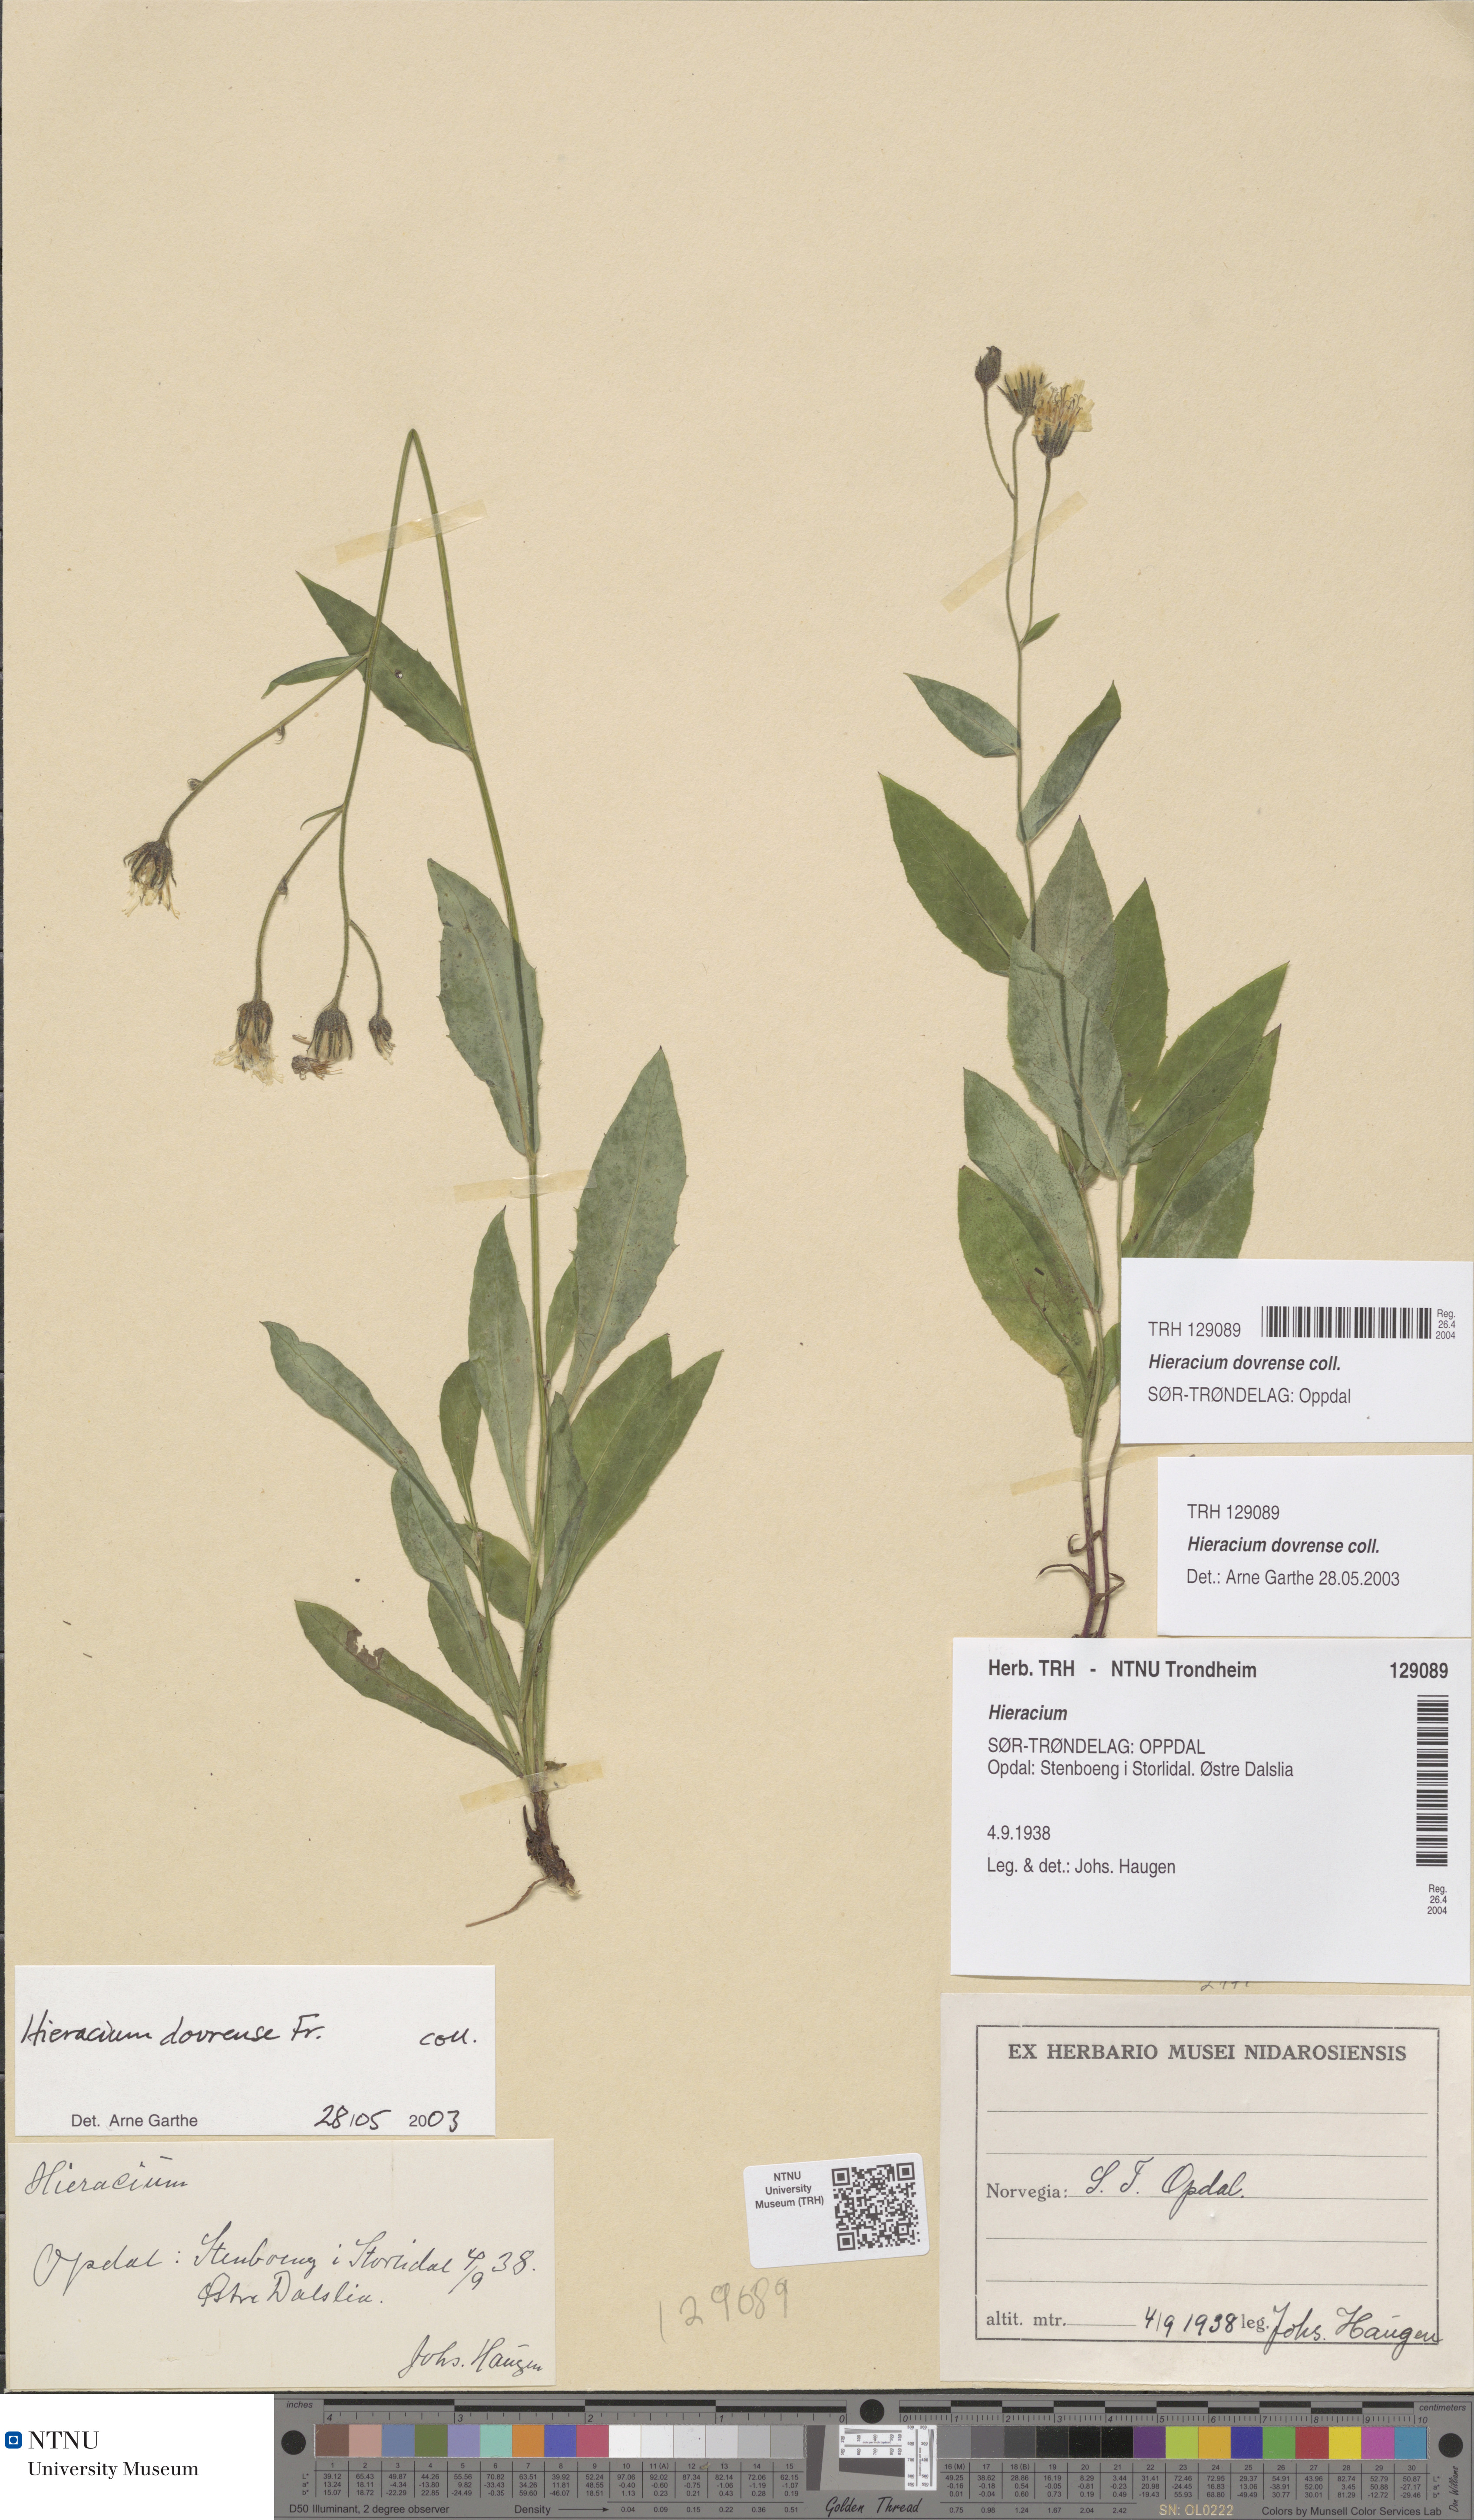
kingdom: Plantae
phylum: Tracheophyta
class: Magnoliopsida
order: Asterales
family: Asteraceae
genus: Hieracium
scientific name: Hieracium dovrense
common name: Dovre hawkweed
